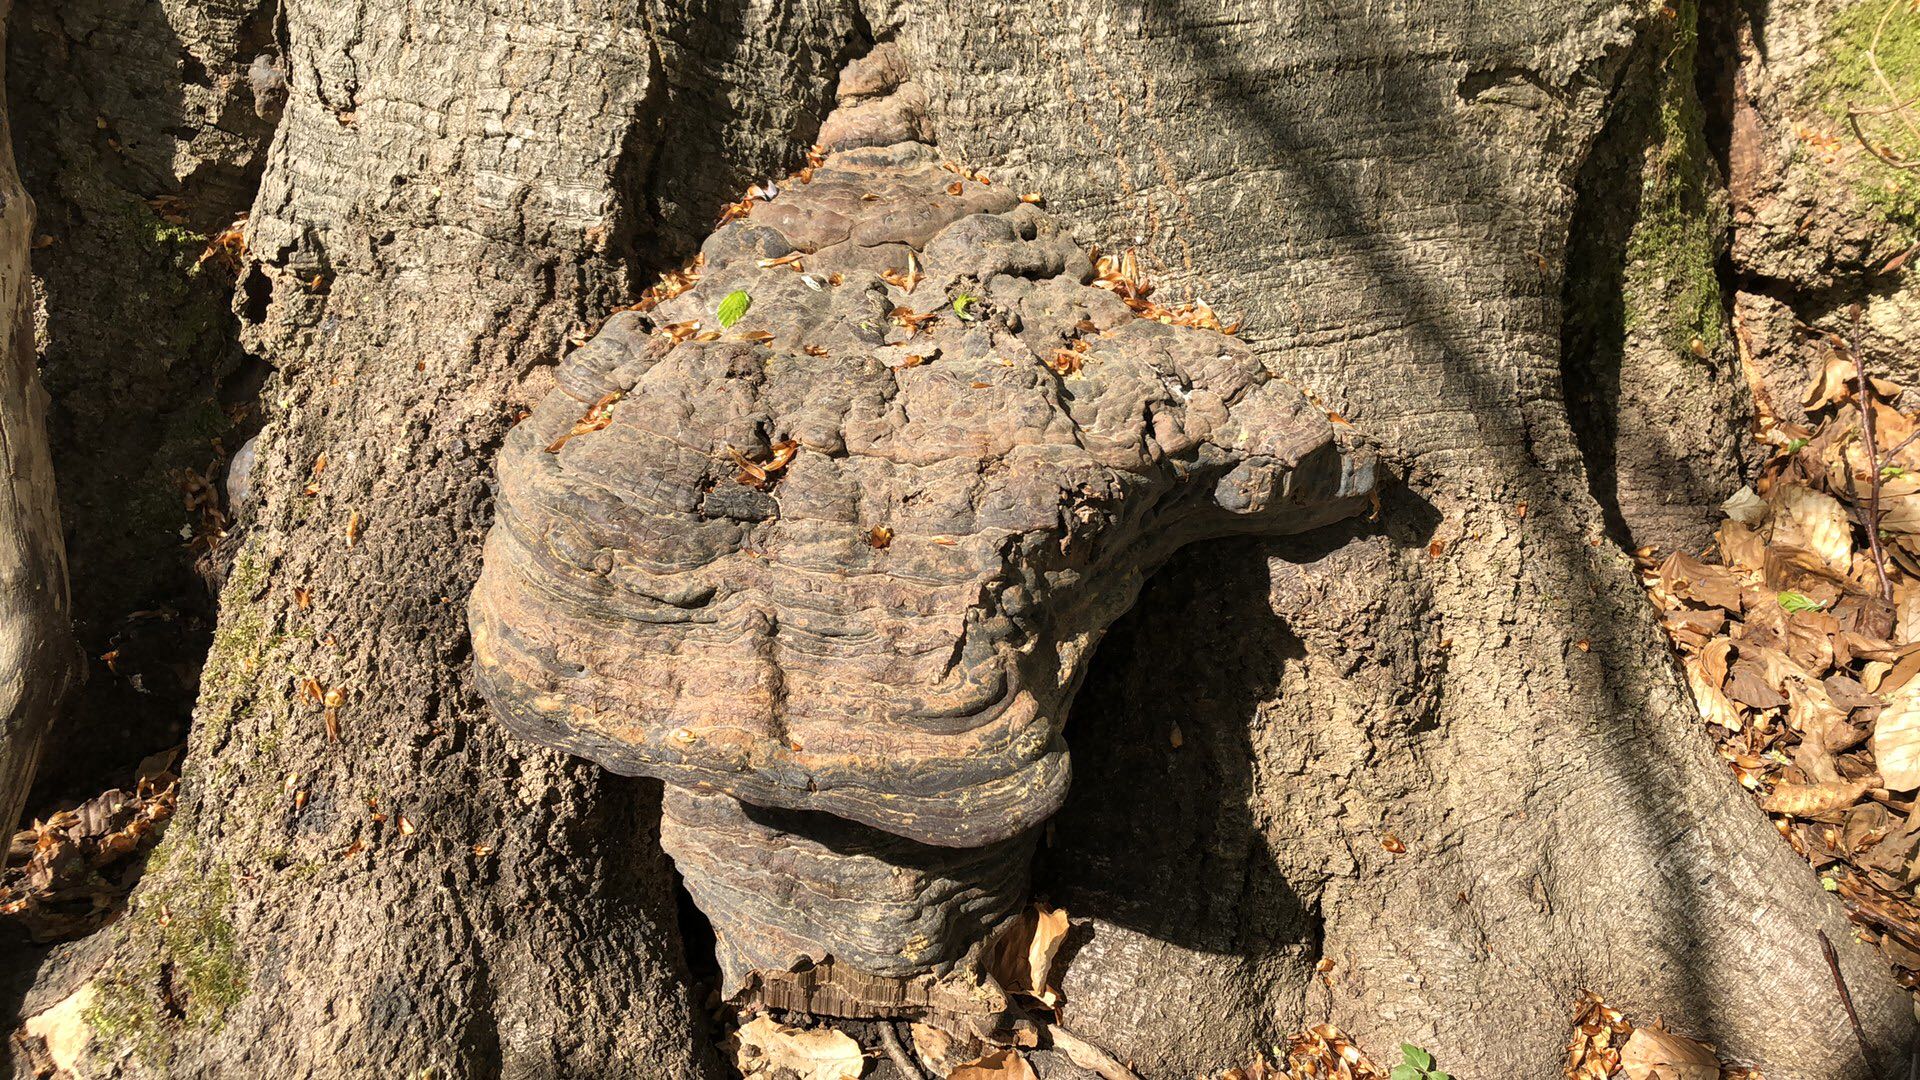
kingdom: Fungi
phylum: Basidiomycota
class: Agaricomycetes
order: Polyporales
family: Polyporaceae
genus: Ganoderma
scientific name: Ganoderma pfeifferi
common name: kobberrød lakporesvamp
